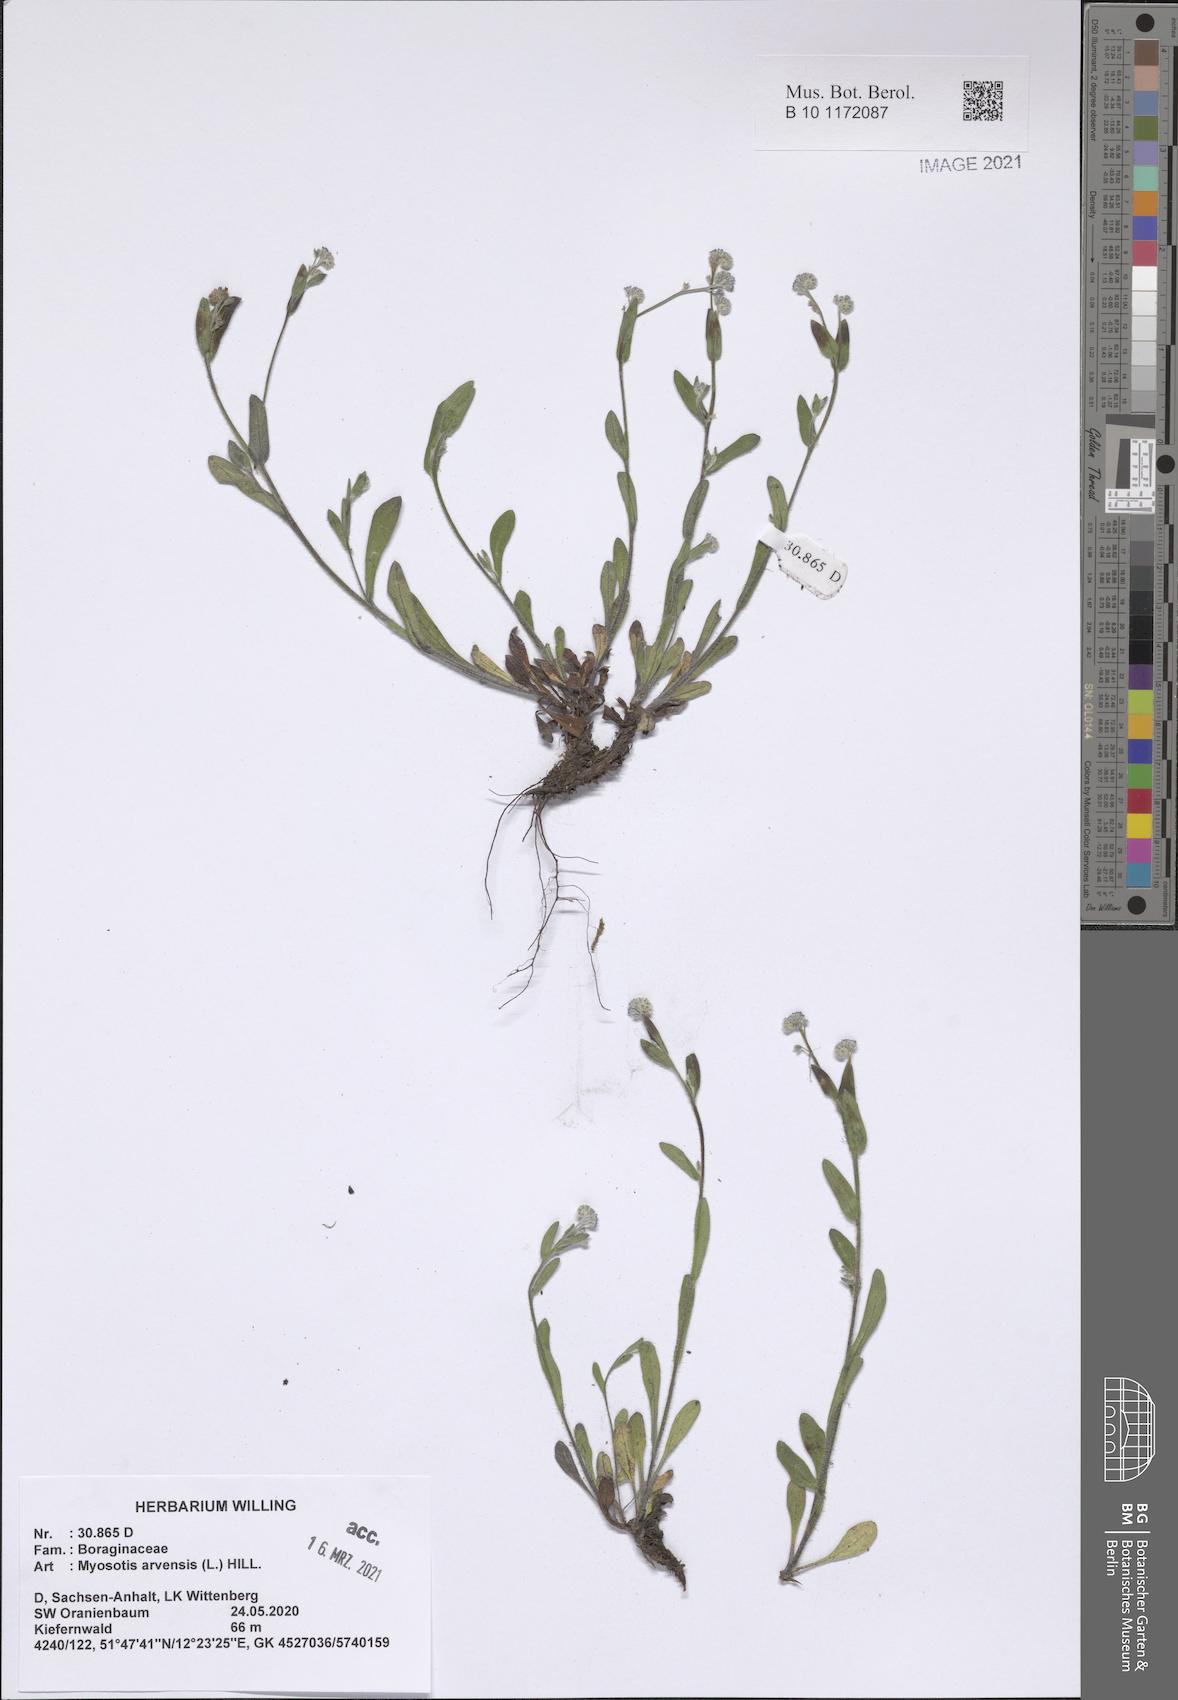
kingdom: Plantae
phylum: Tracheophyta
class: Magnoliopsida
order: Boraginales
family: Boraginaceae
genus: Myosotis
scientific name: Myosotis arvensis
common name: Field forget-me-not
